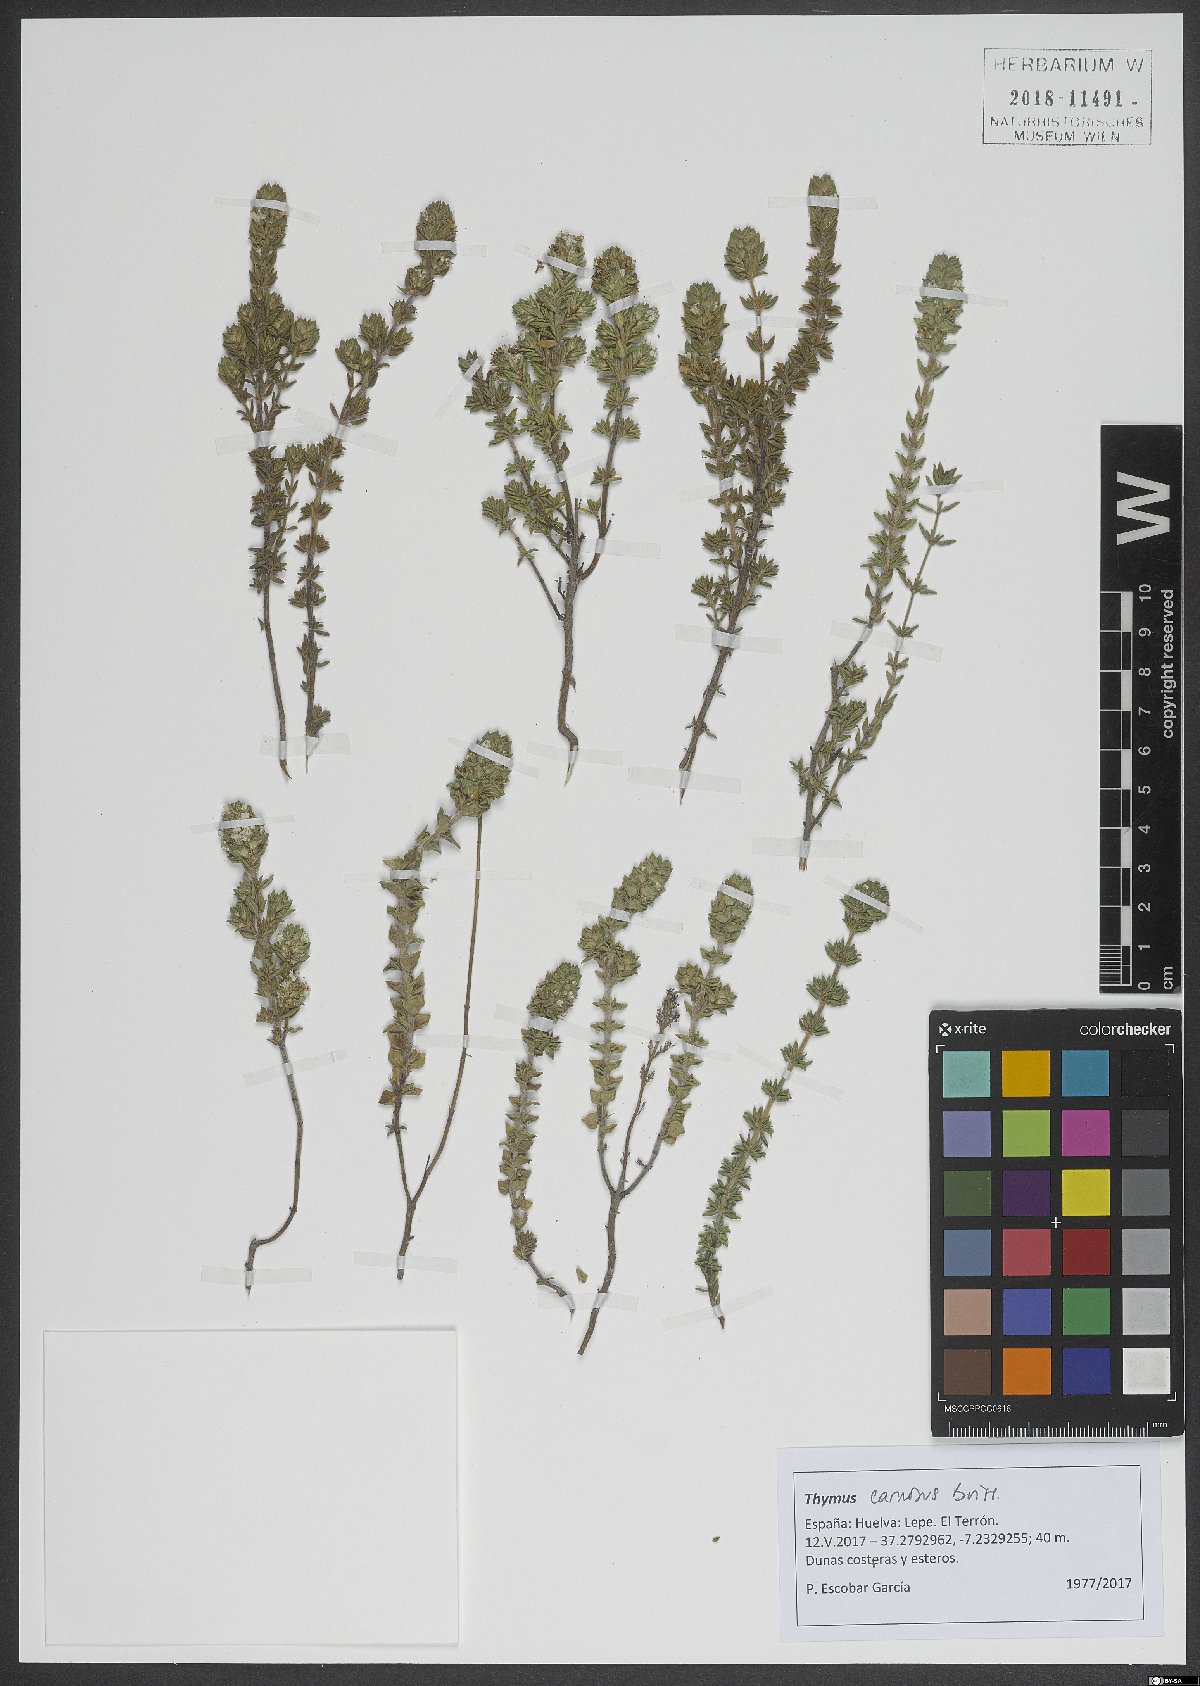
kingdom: Plantae
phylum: Tracheophyta
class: Magnoliopsida
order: Lamiales
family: Lamiaceae
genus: Thymus
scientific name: Thymus carnosus
